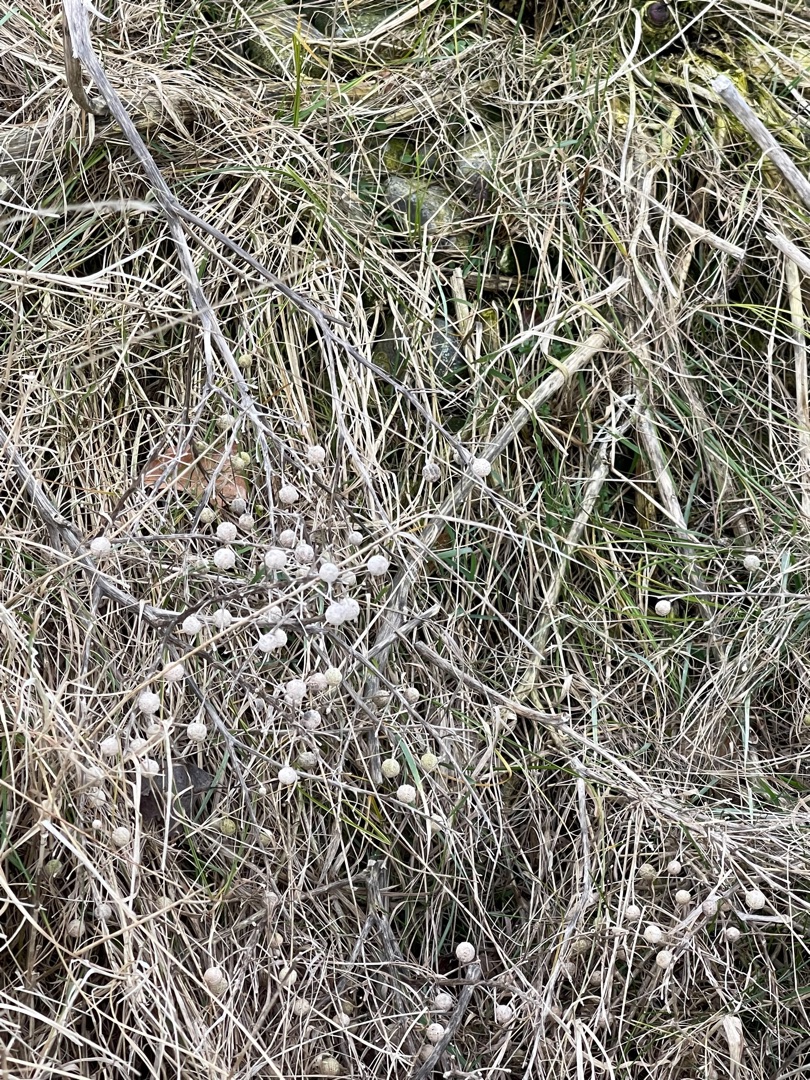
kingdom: Plantae
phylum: Tracheophyta
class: Magnoliopsida
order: Brassicales
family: Brassicaceae
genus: Crambe
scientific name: Crambe maritima
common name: Strandkål
